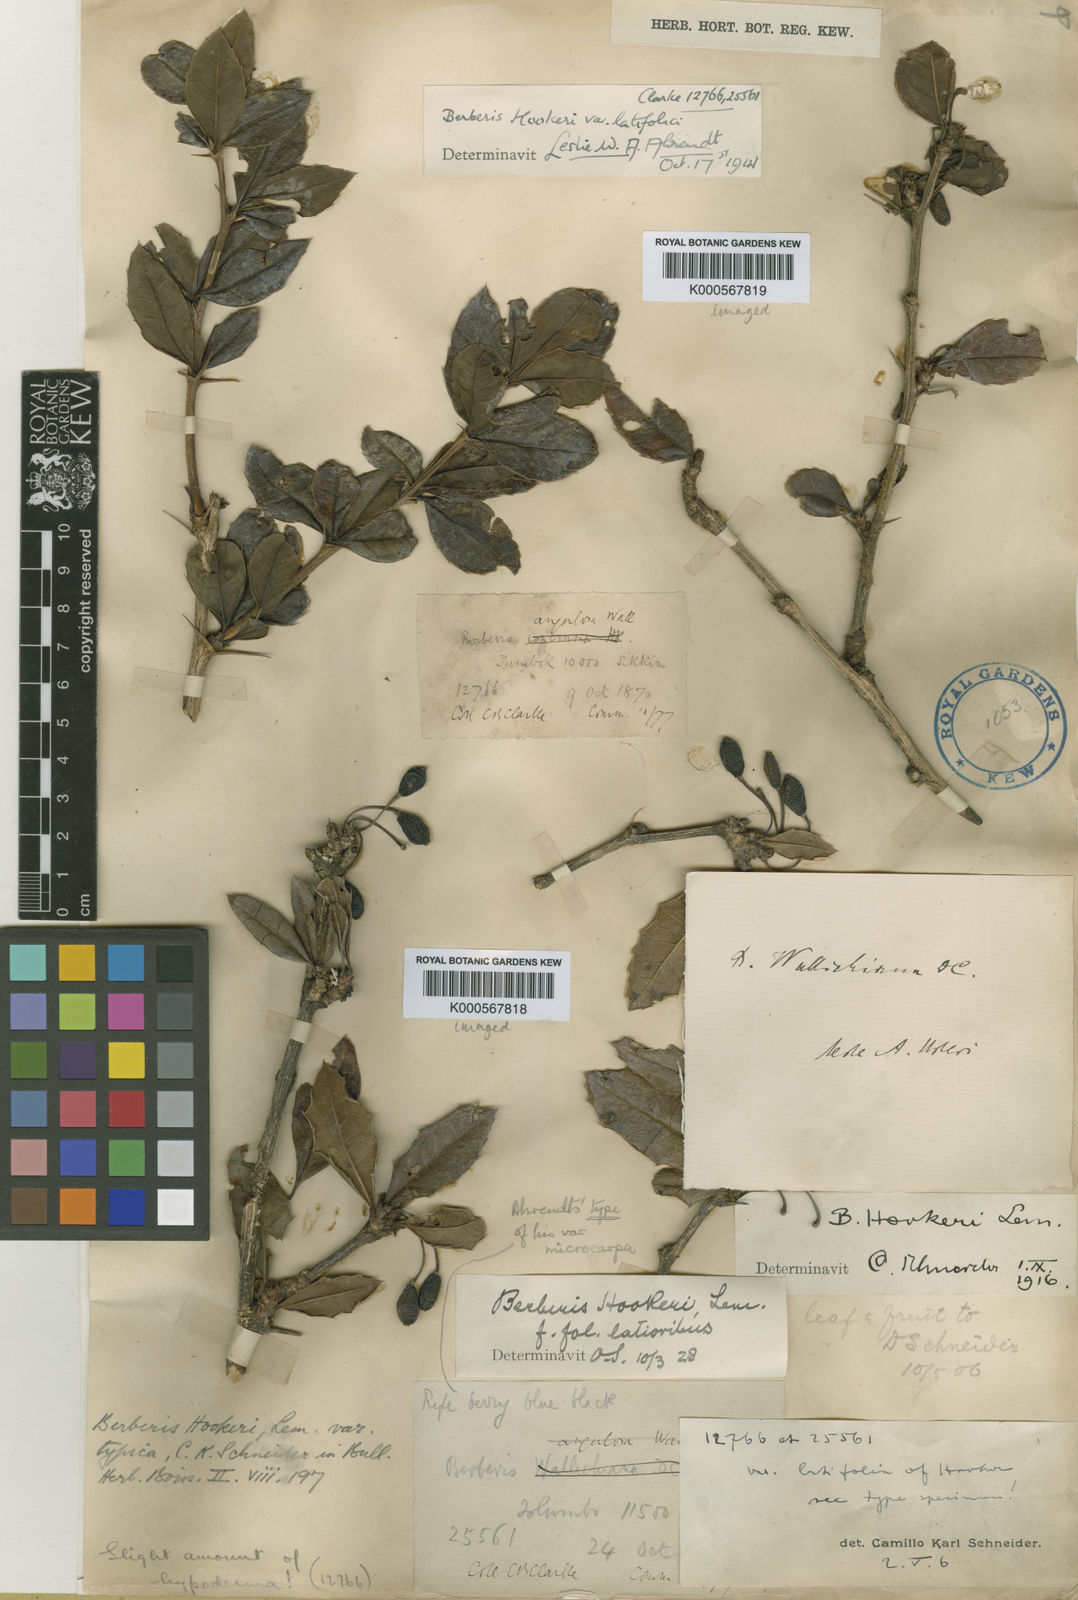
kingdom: Plantae
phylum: Tracheophyta
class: Magnoliopsida
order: Ranunculales
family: Berberidaceae
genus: Berberis
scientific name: Berberis hookeri
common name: Hooker's barberry
